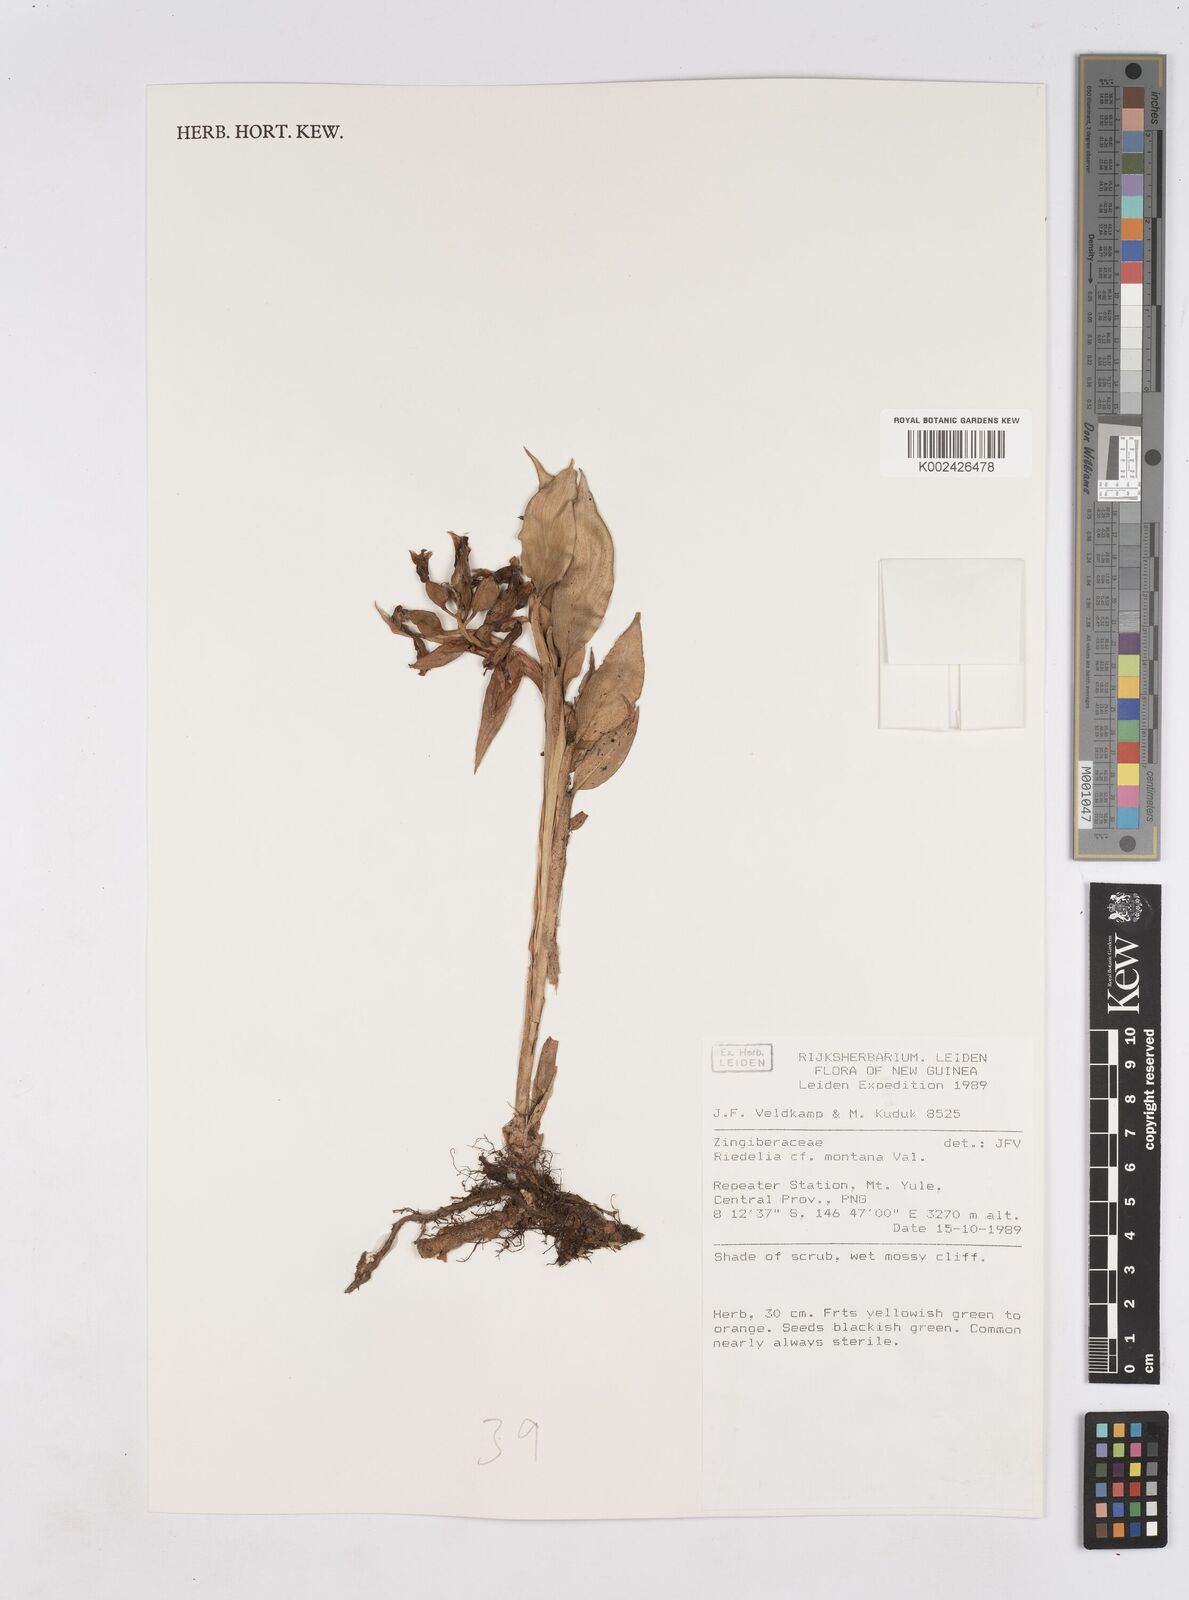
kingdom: Plantae
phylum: Tracheophyta
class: Liliopsida
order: Zingiberales
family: Zingiberaceae
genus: Riedelia
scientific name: Riedelia montana
